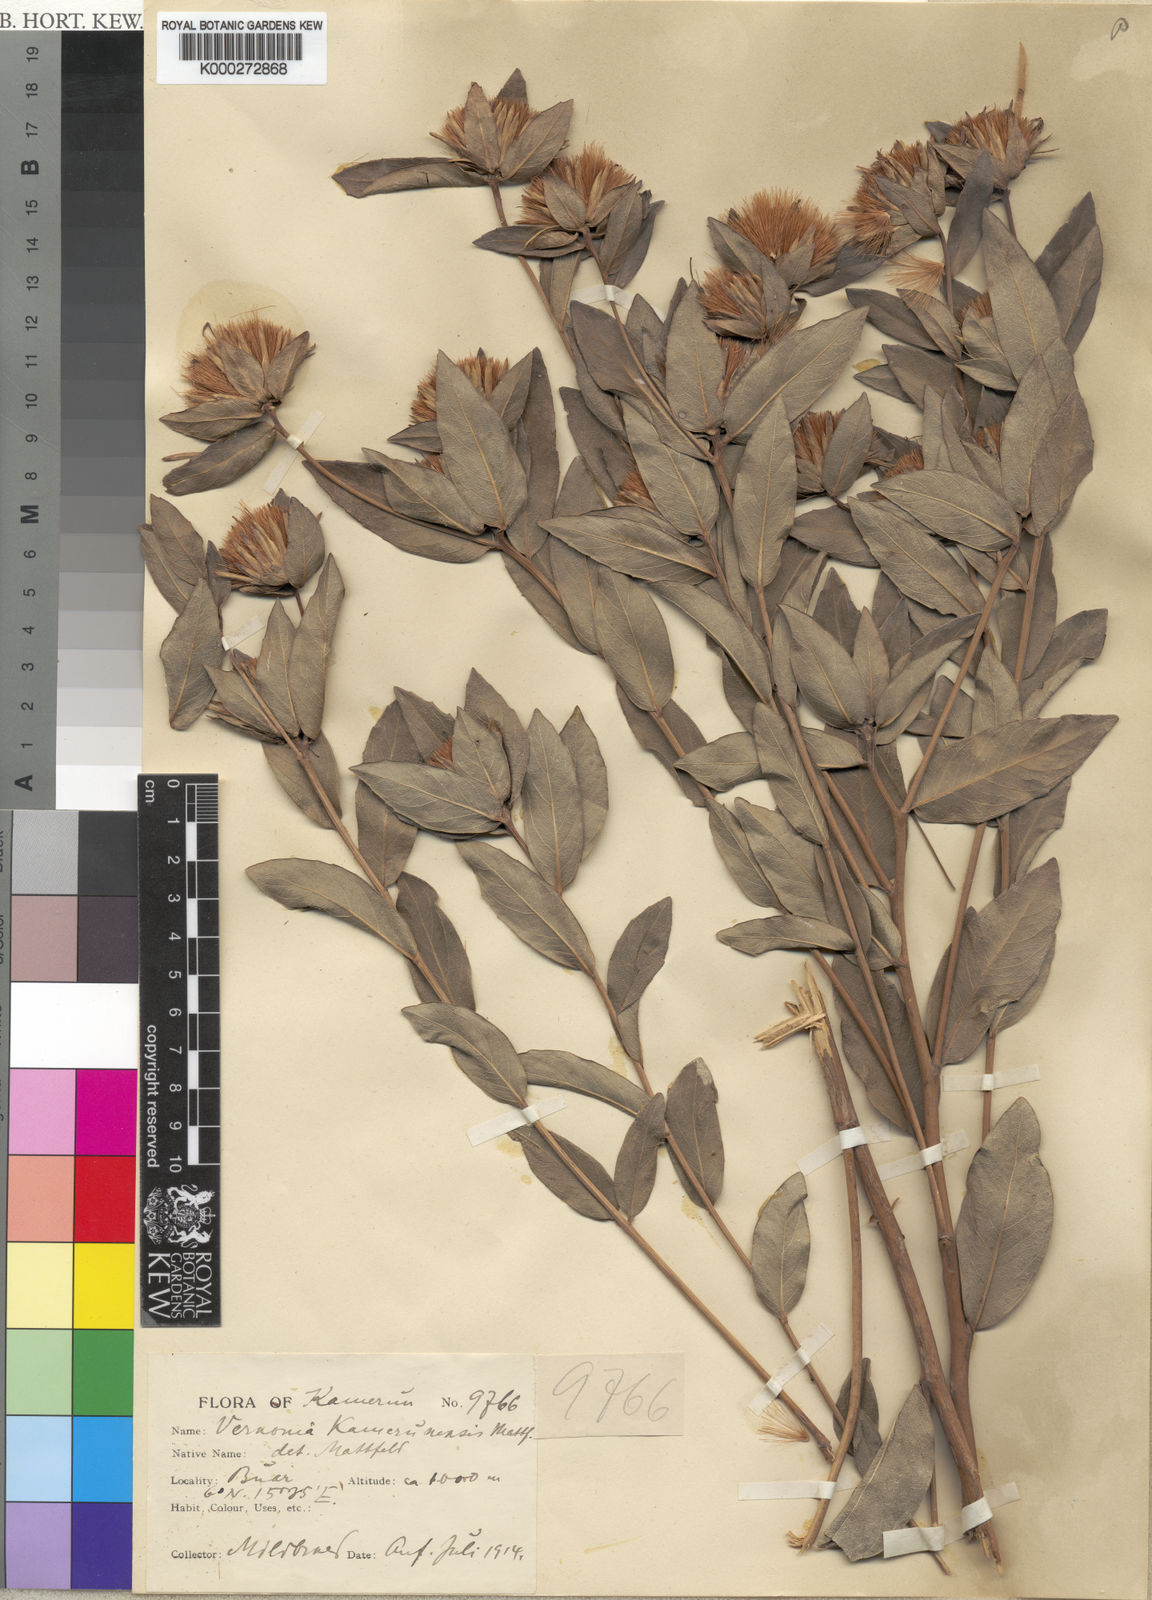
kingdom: Plantae
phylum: Tracheophyta
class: Magnoliopsida
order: Asterales
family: Asteraceae
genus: Vernonia
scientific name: Vernonia kamerunensis
